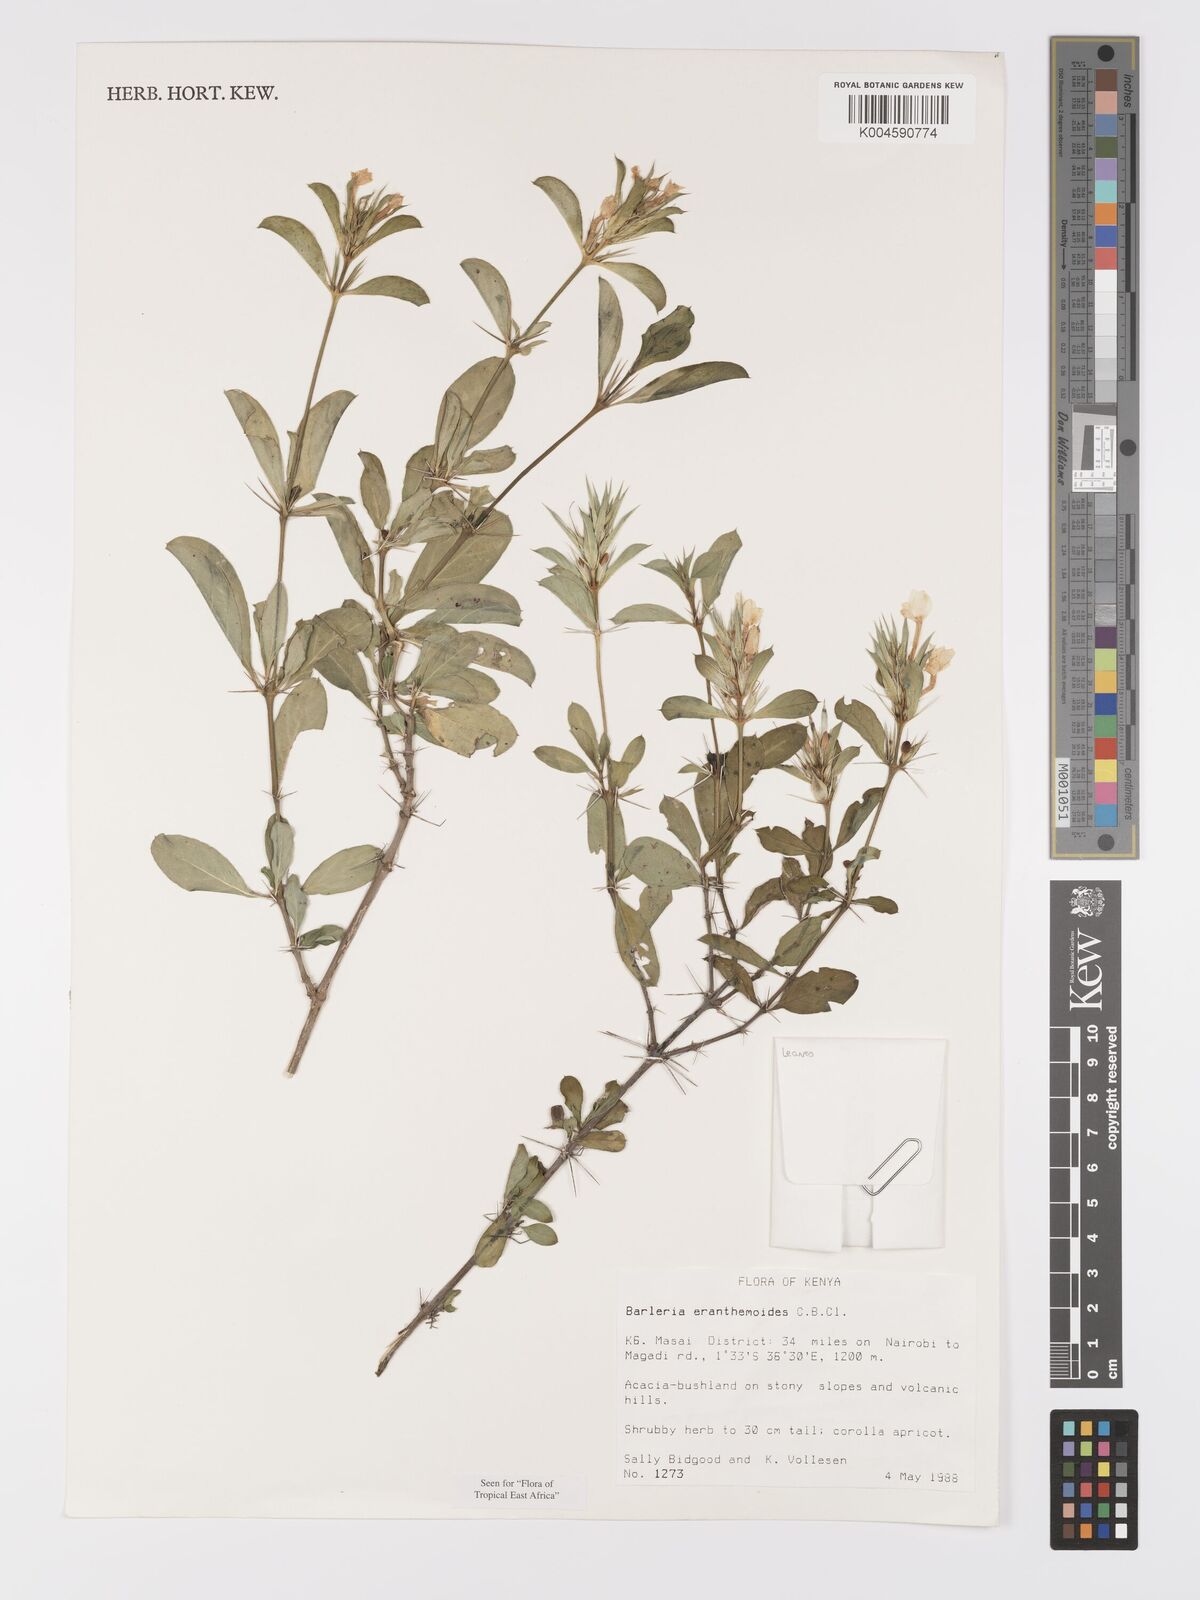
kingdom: Plantae
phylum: Tracheophyta
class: Magnoliopsida
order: Lamiales
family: Acanthaceae
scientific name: Acanthaceae
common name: Acanthaceae
